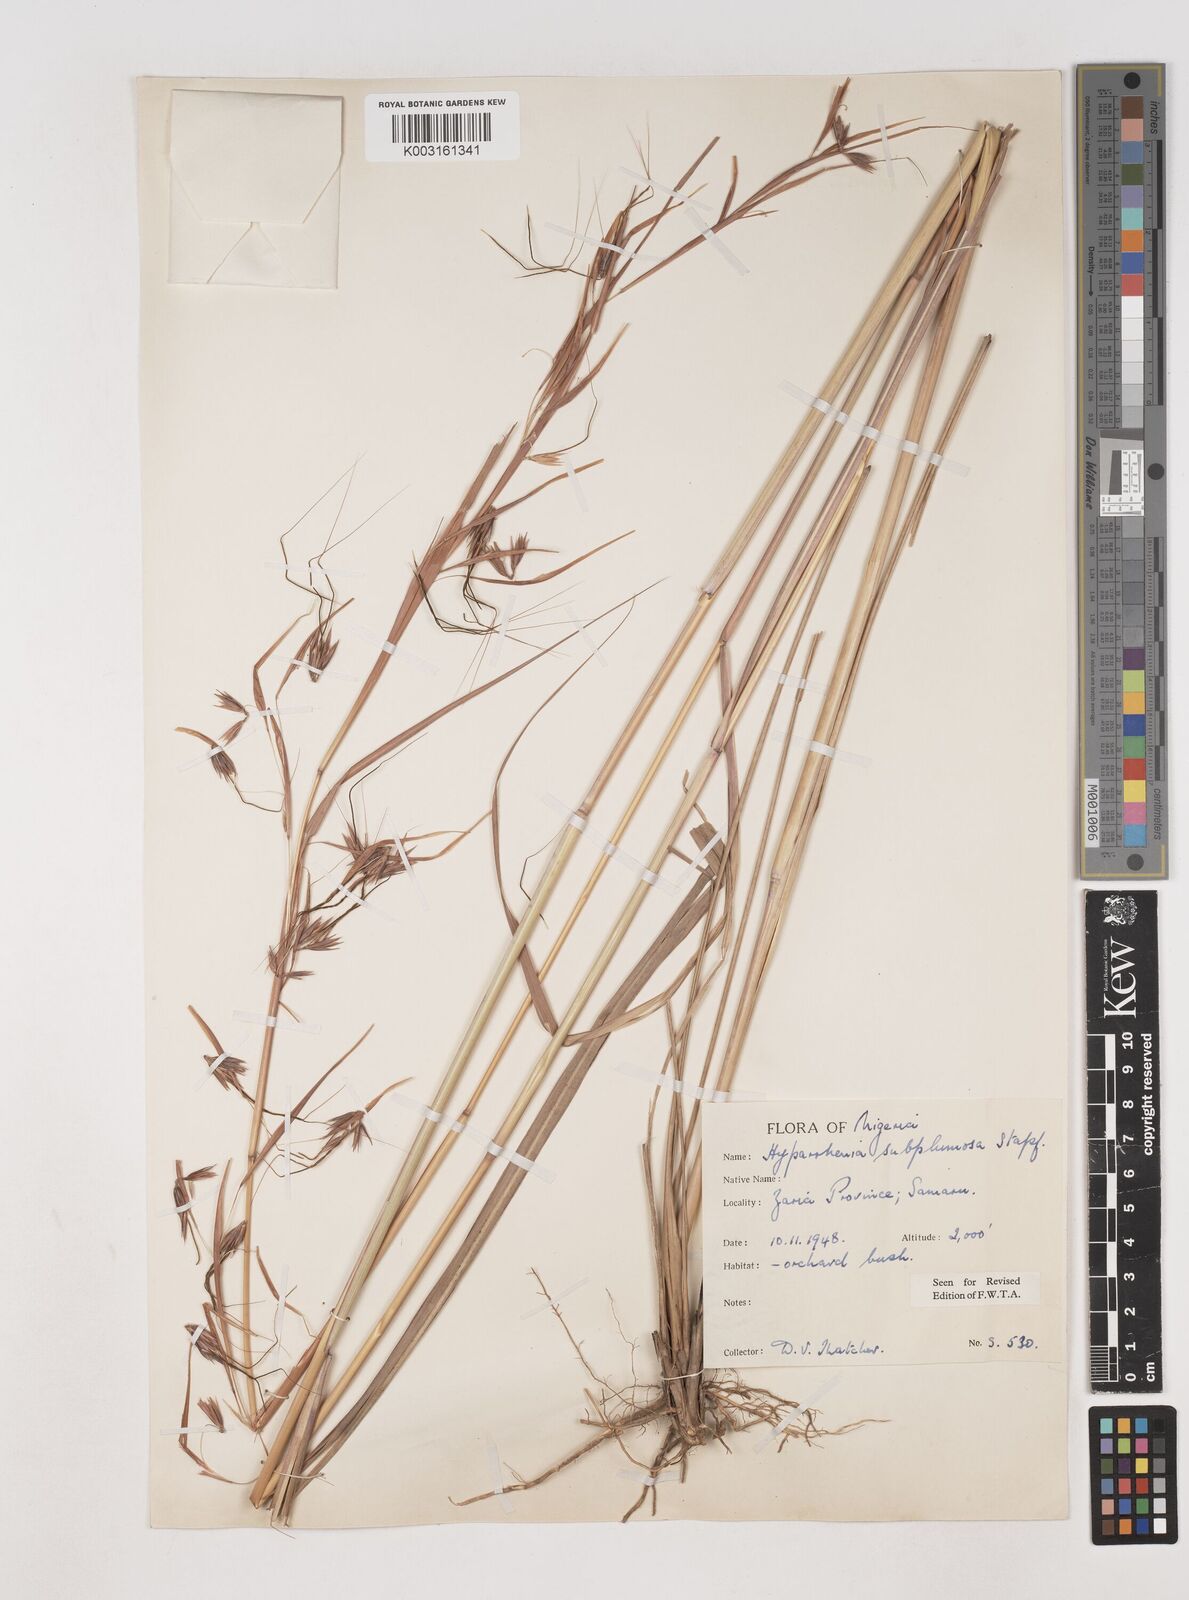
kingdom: Plantae
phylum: Tracheophyta
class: Liliopsida
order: Poales
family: Poaceae
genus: Hyparrhenia
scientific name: Hyparrhenia subplumosa
